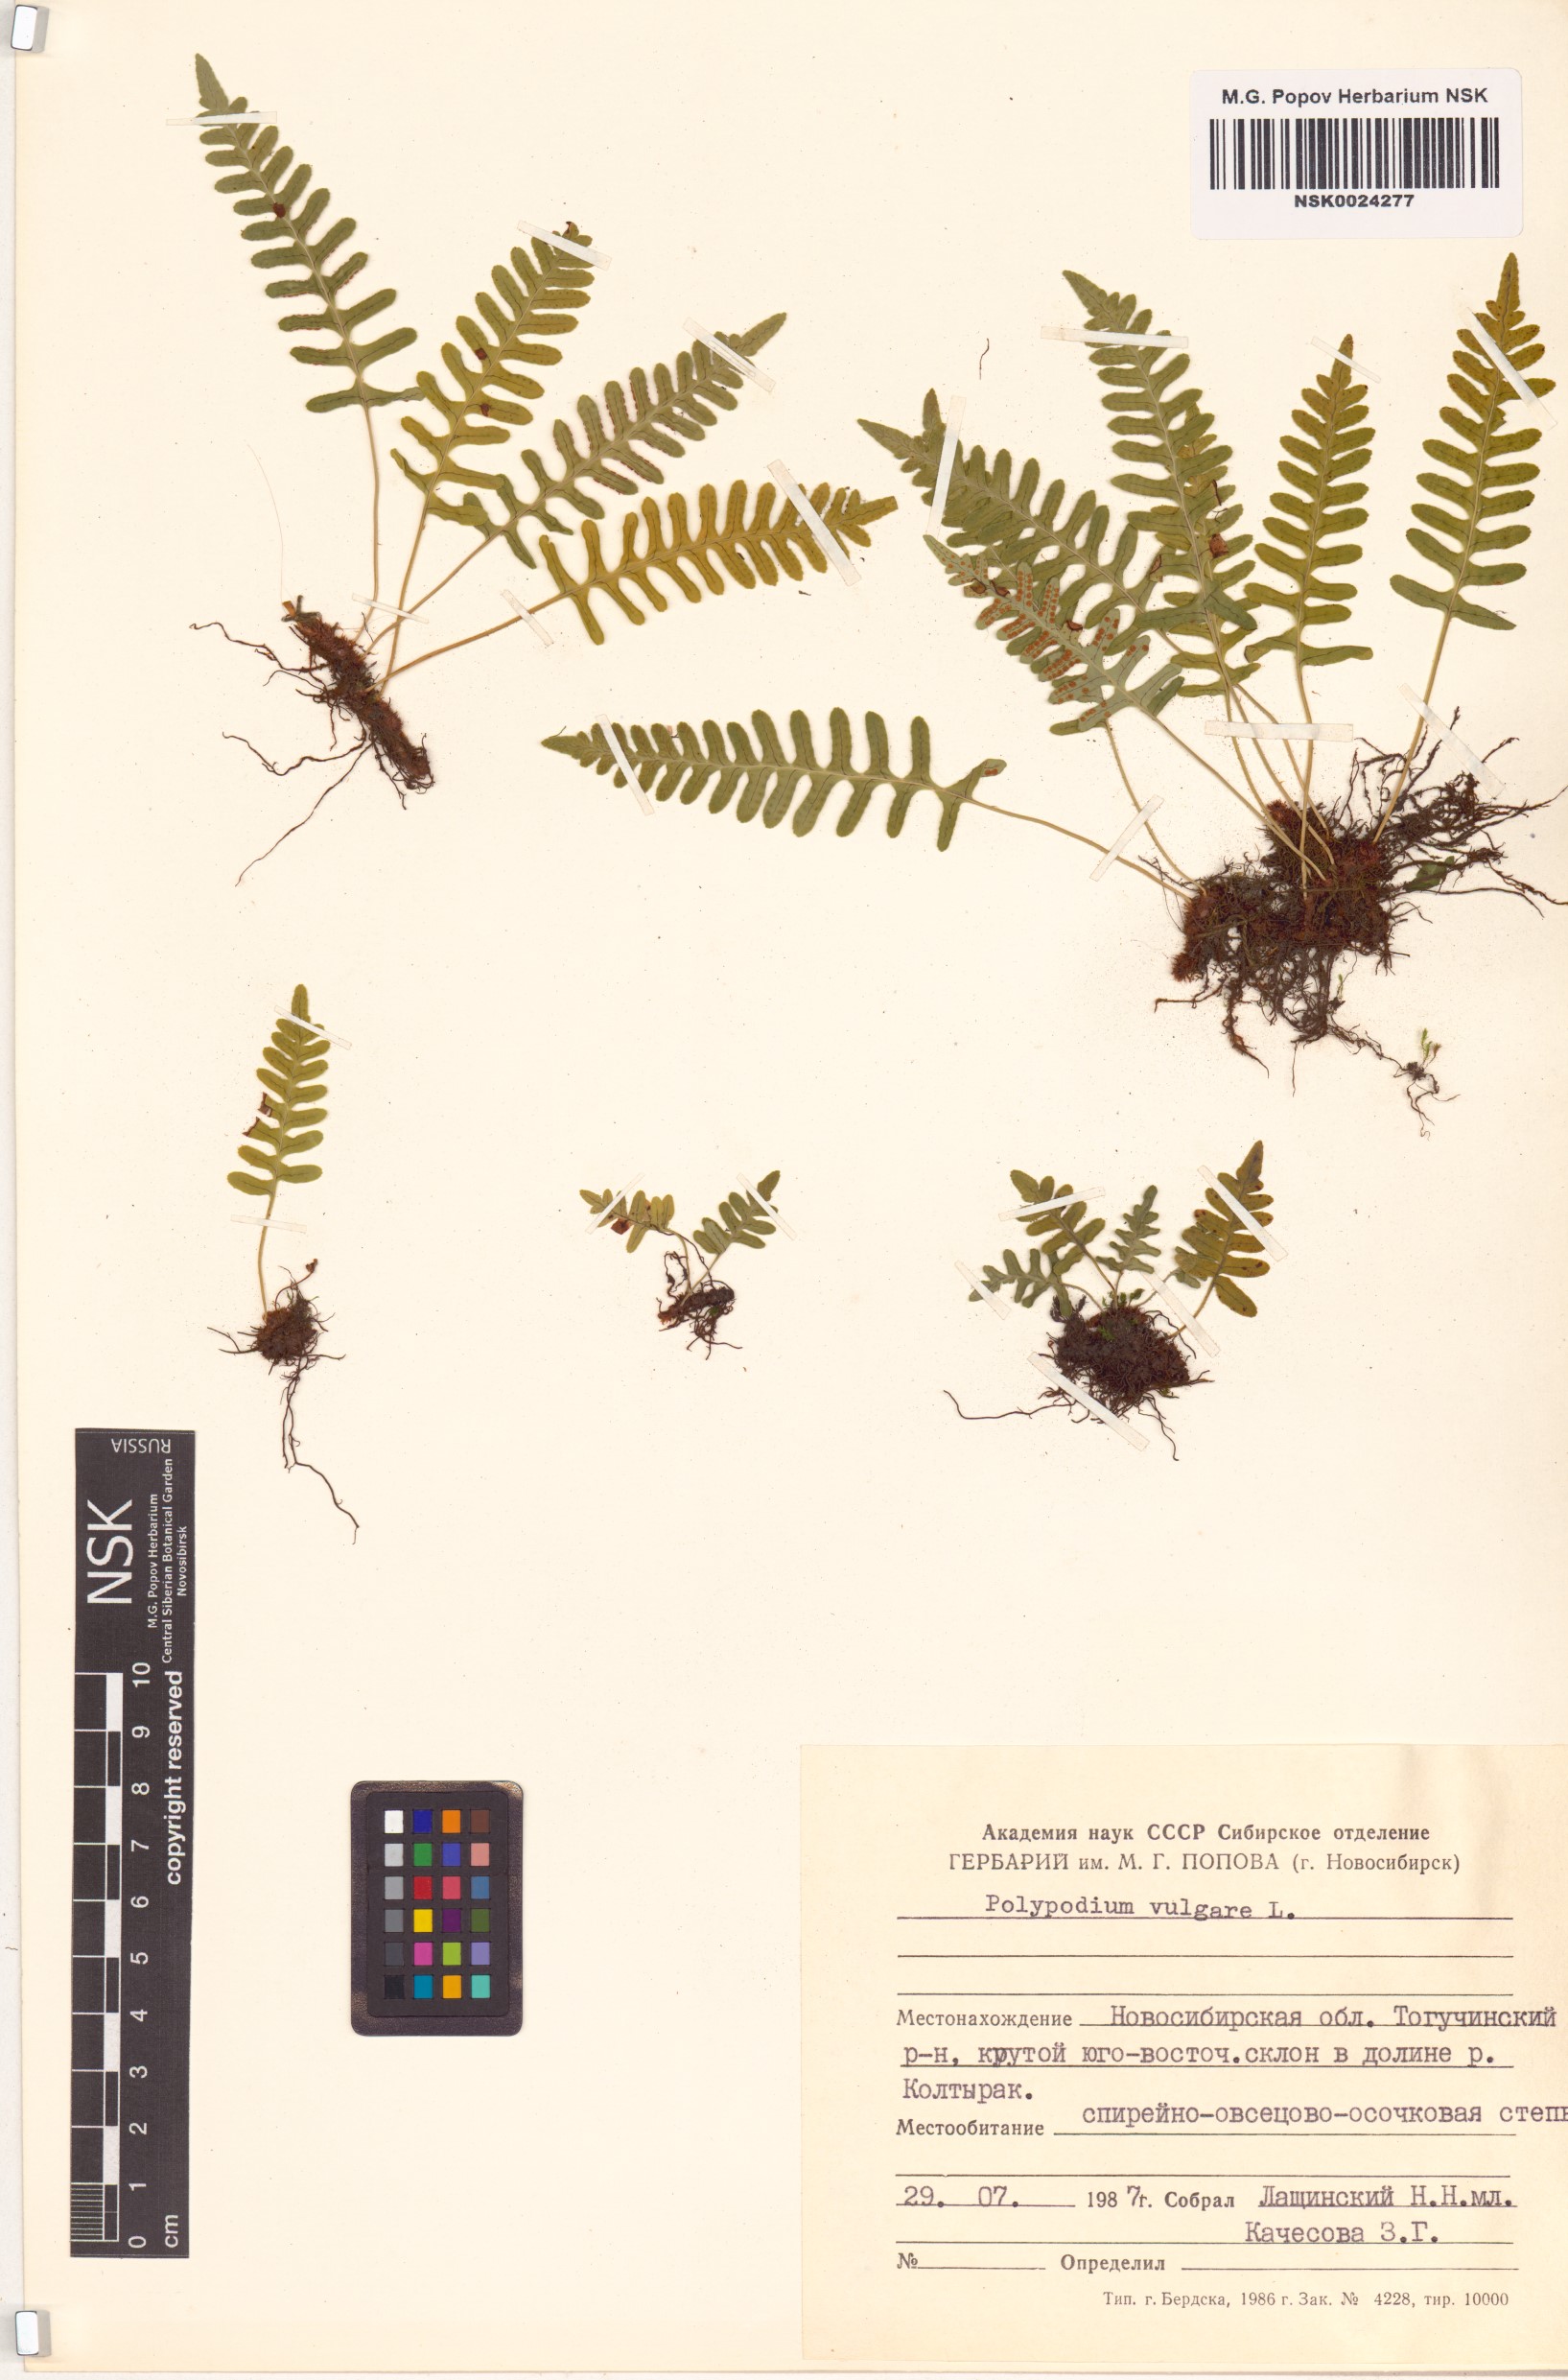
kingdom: Plantae
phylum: Tracheophyta
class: Polypodiopsida
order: Polypodiales
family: Polypodiaceae
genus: Polypodium
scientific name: Polypodium vulgare
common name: Common polypody
